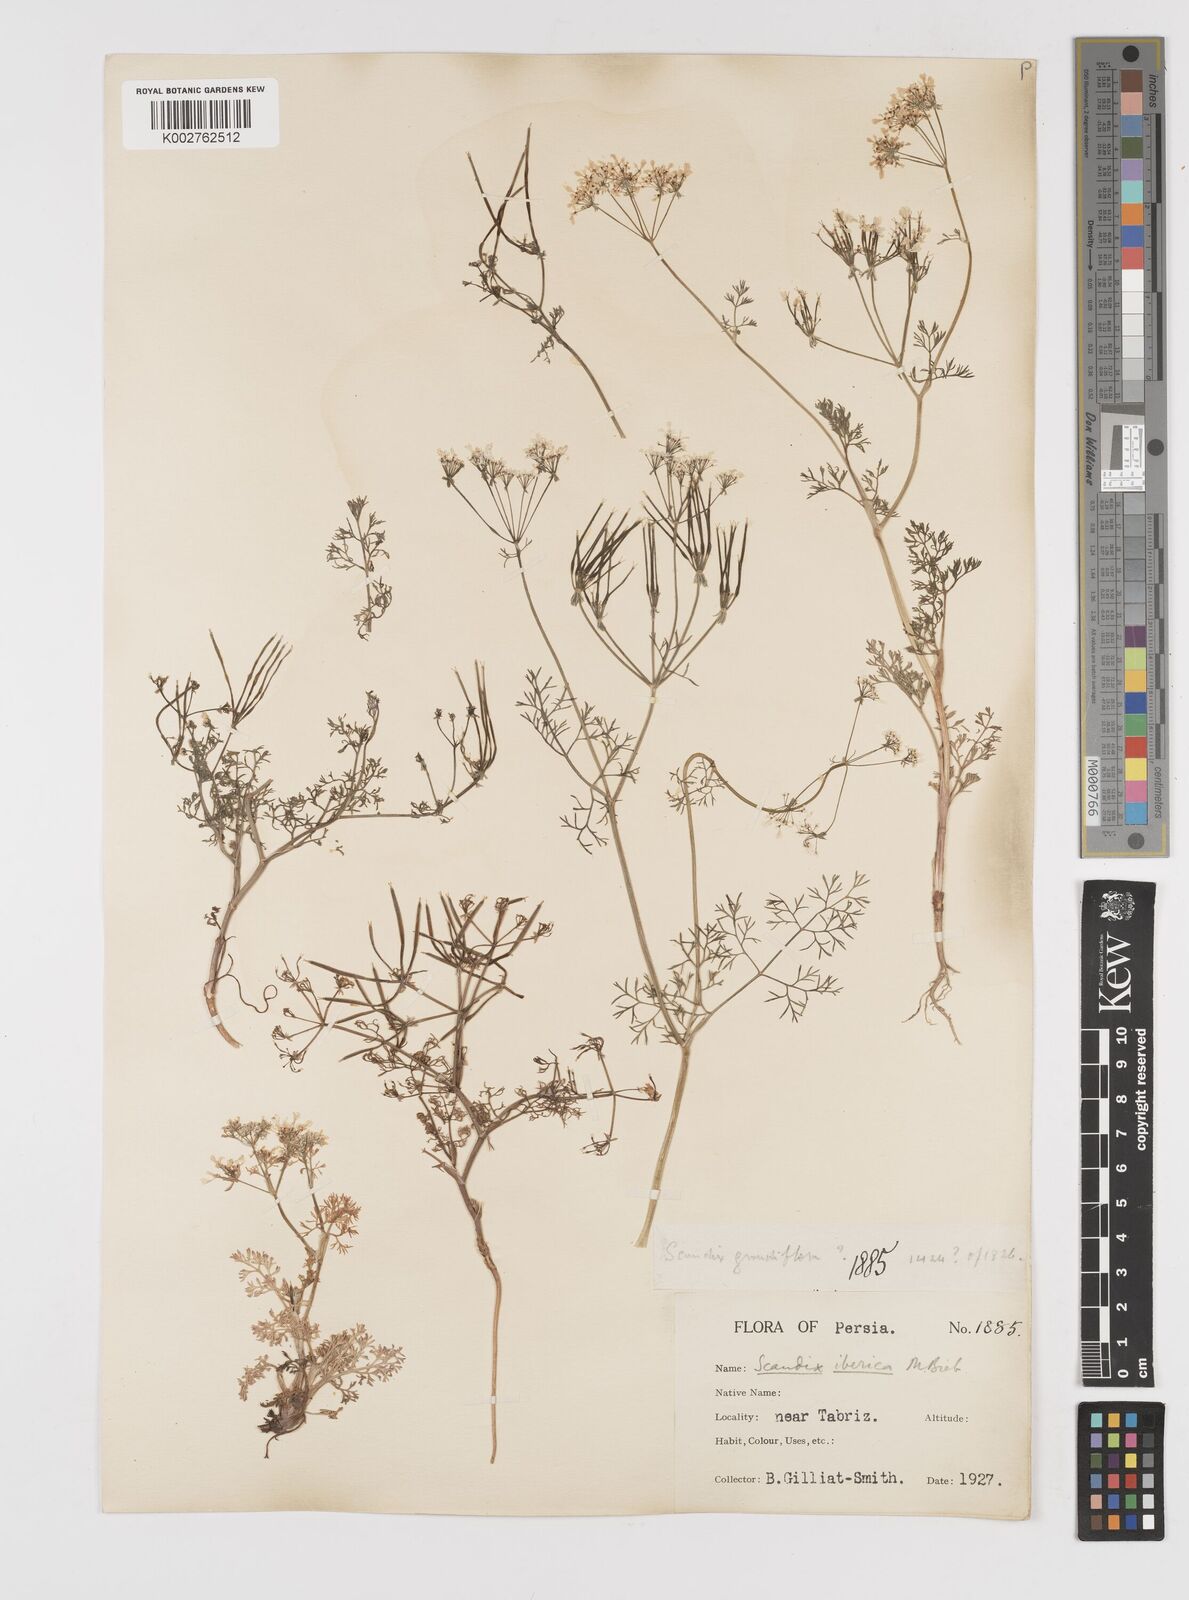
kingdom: Plantae
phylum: Tracheophyta
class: Magnoliopsida
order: Apiales
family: Apiaceae
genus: Scandix
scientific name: Scandix iberica
